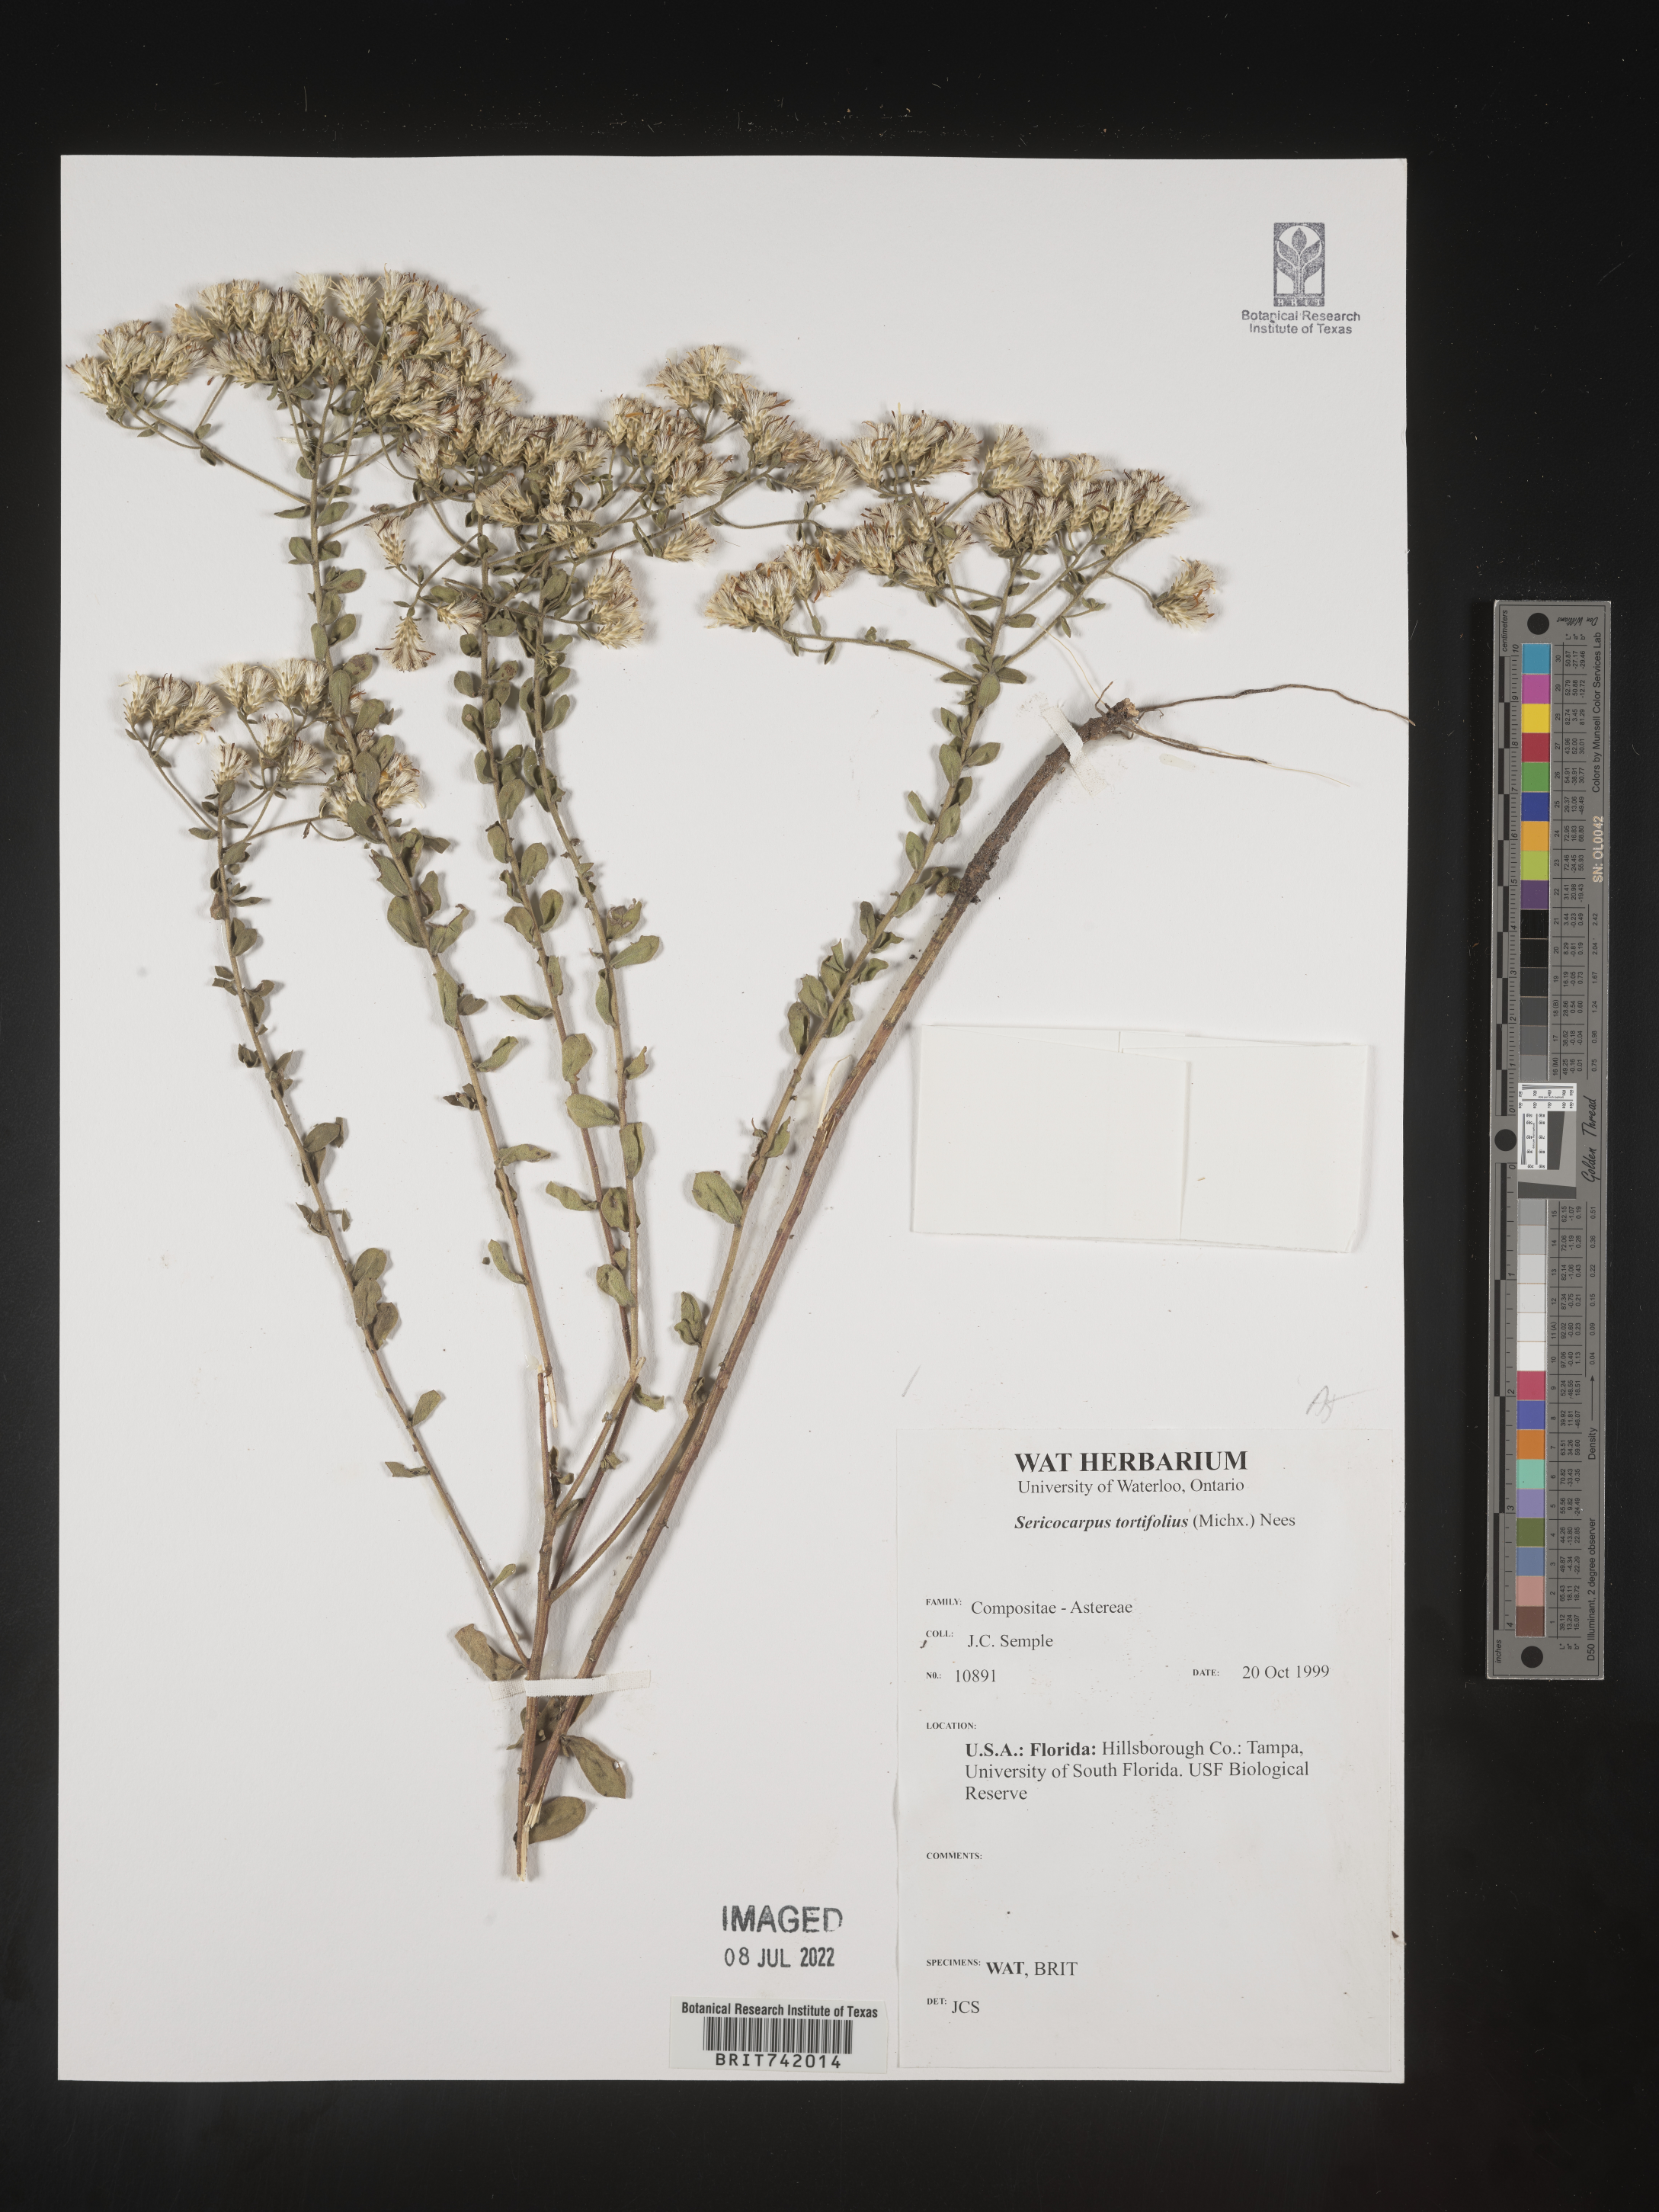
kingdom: Plantae
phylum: Tracheophyta
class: Magnoliopsida
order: Asterales
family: Asteraceae
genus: Sericocarpus
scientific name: Sericocarpus tortifolius
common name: Dixie aster
